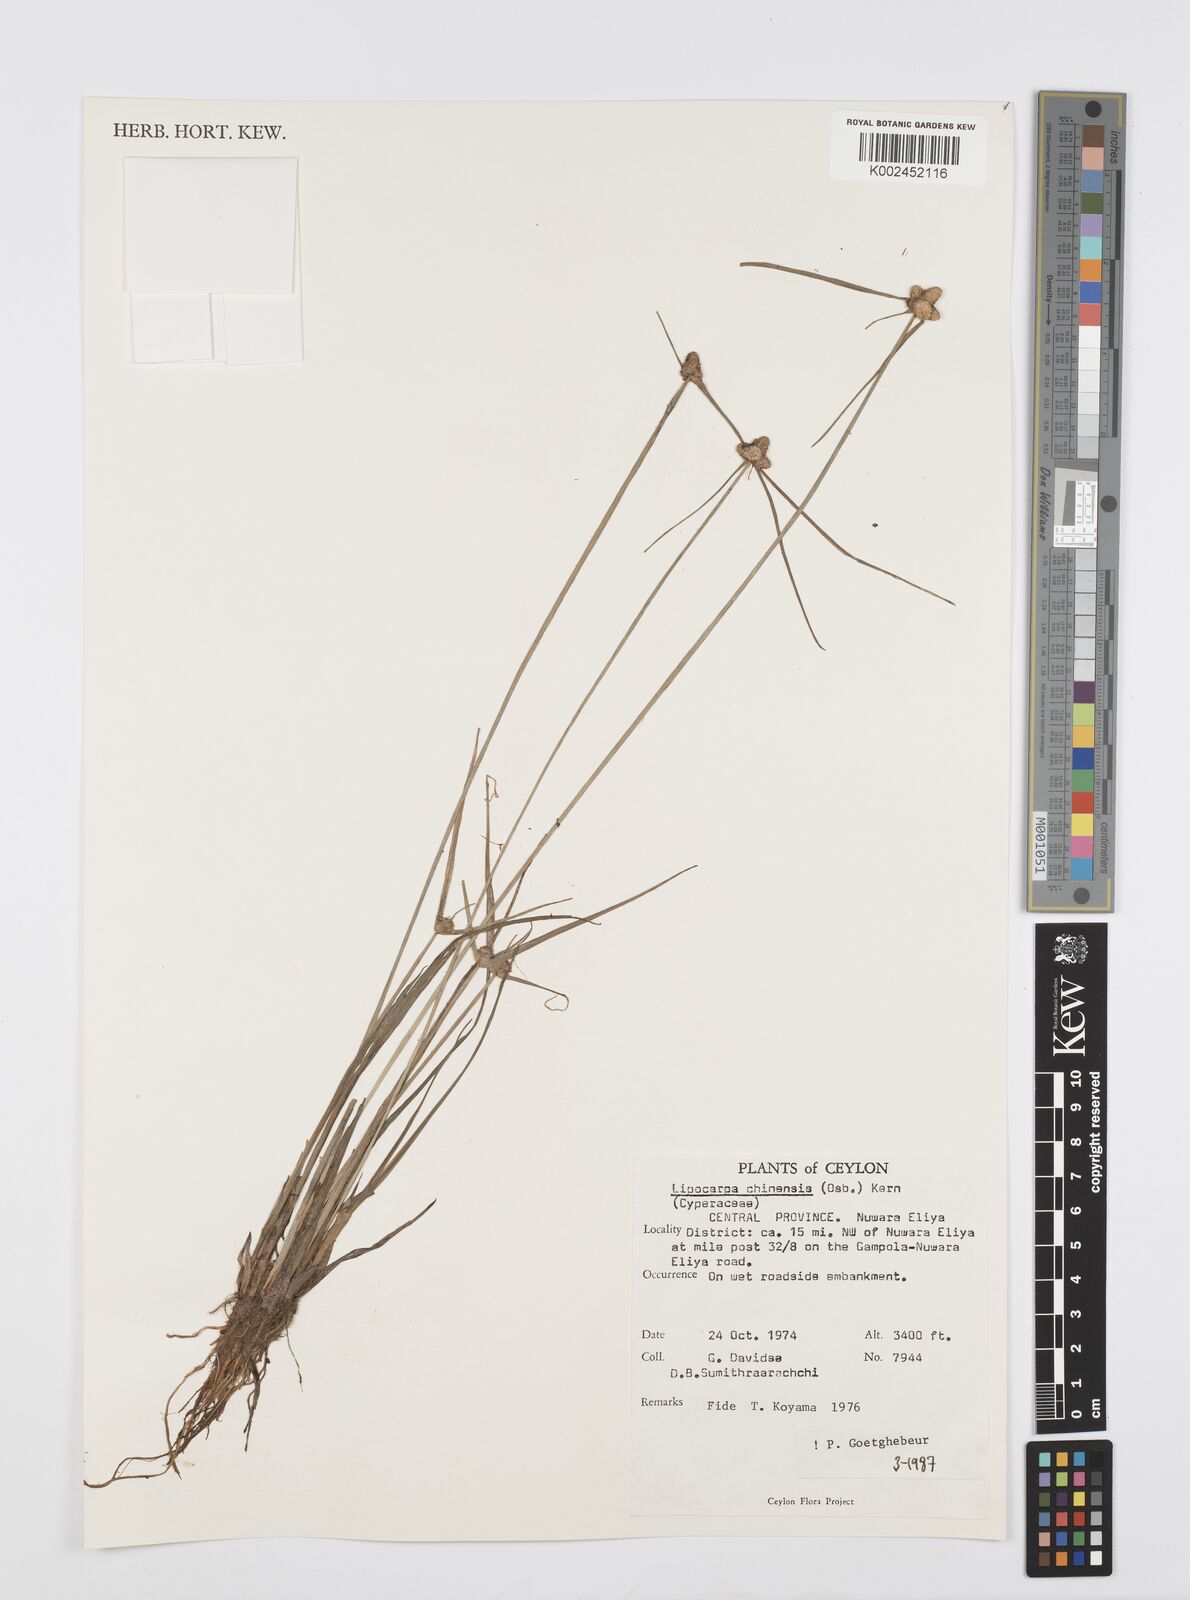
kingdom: Plantae
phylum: Tracheophyta
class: Liliopsida
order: Poales
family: Cyperaceae
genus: Cyperus
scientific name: Cyperus
